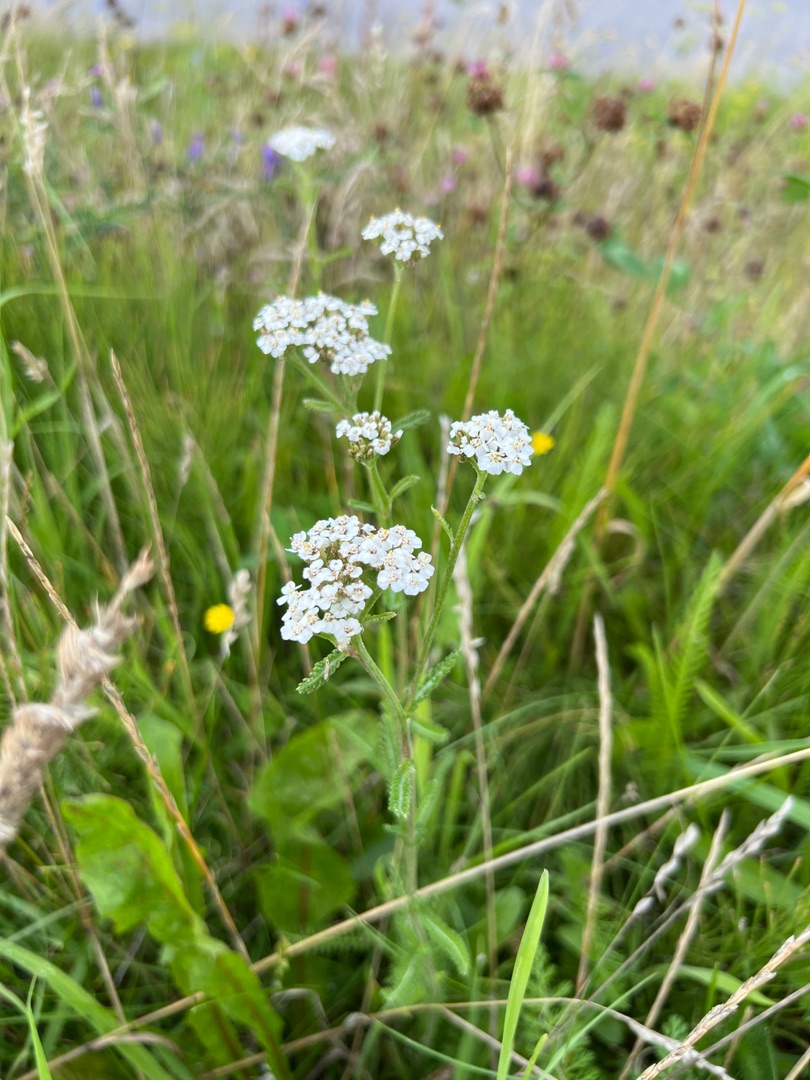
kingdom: Plantae
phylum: Tracheophyta
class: Magnoliopsida
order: Asterales
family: Asteraceae
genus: Achillea
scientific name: Achillea millefolium
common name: Almindelig røllike
